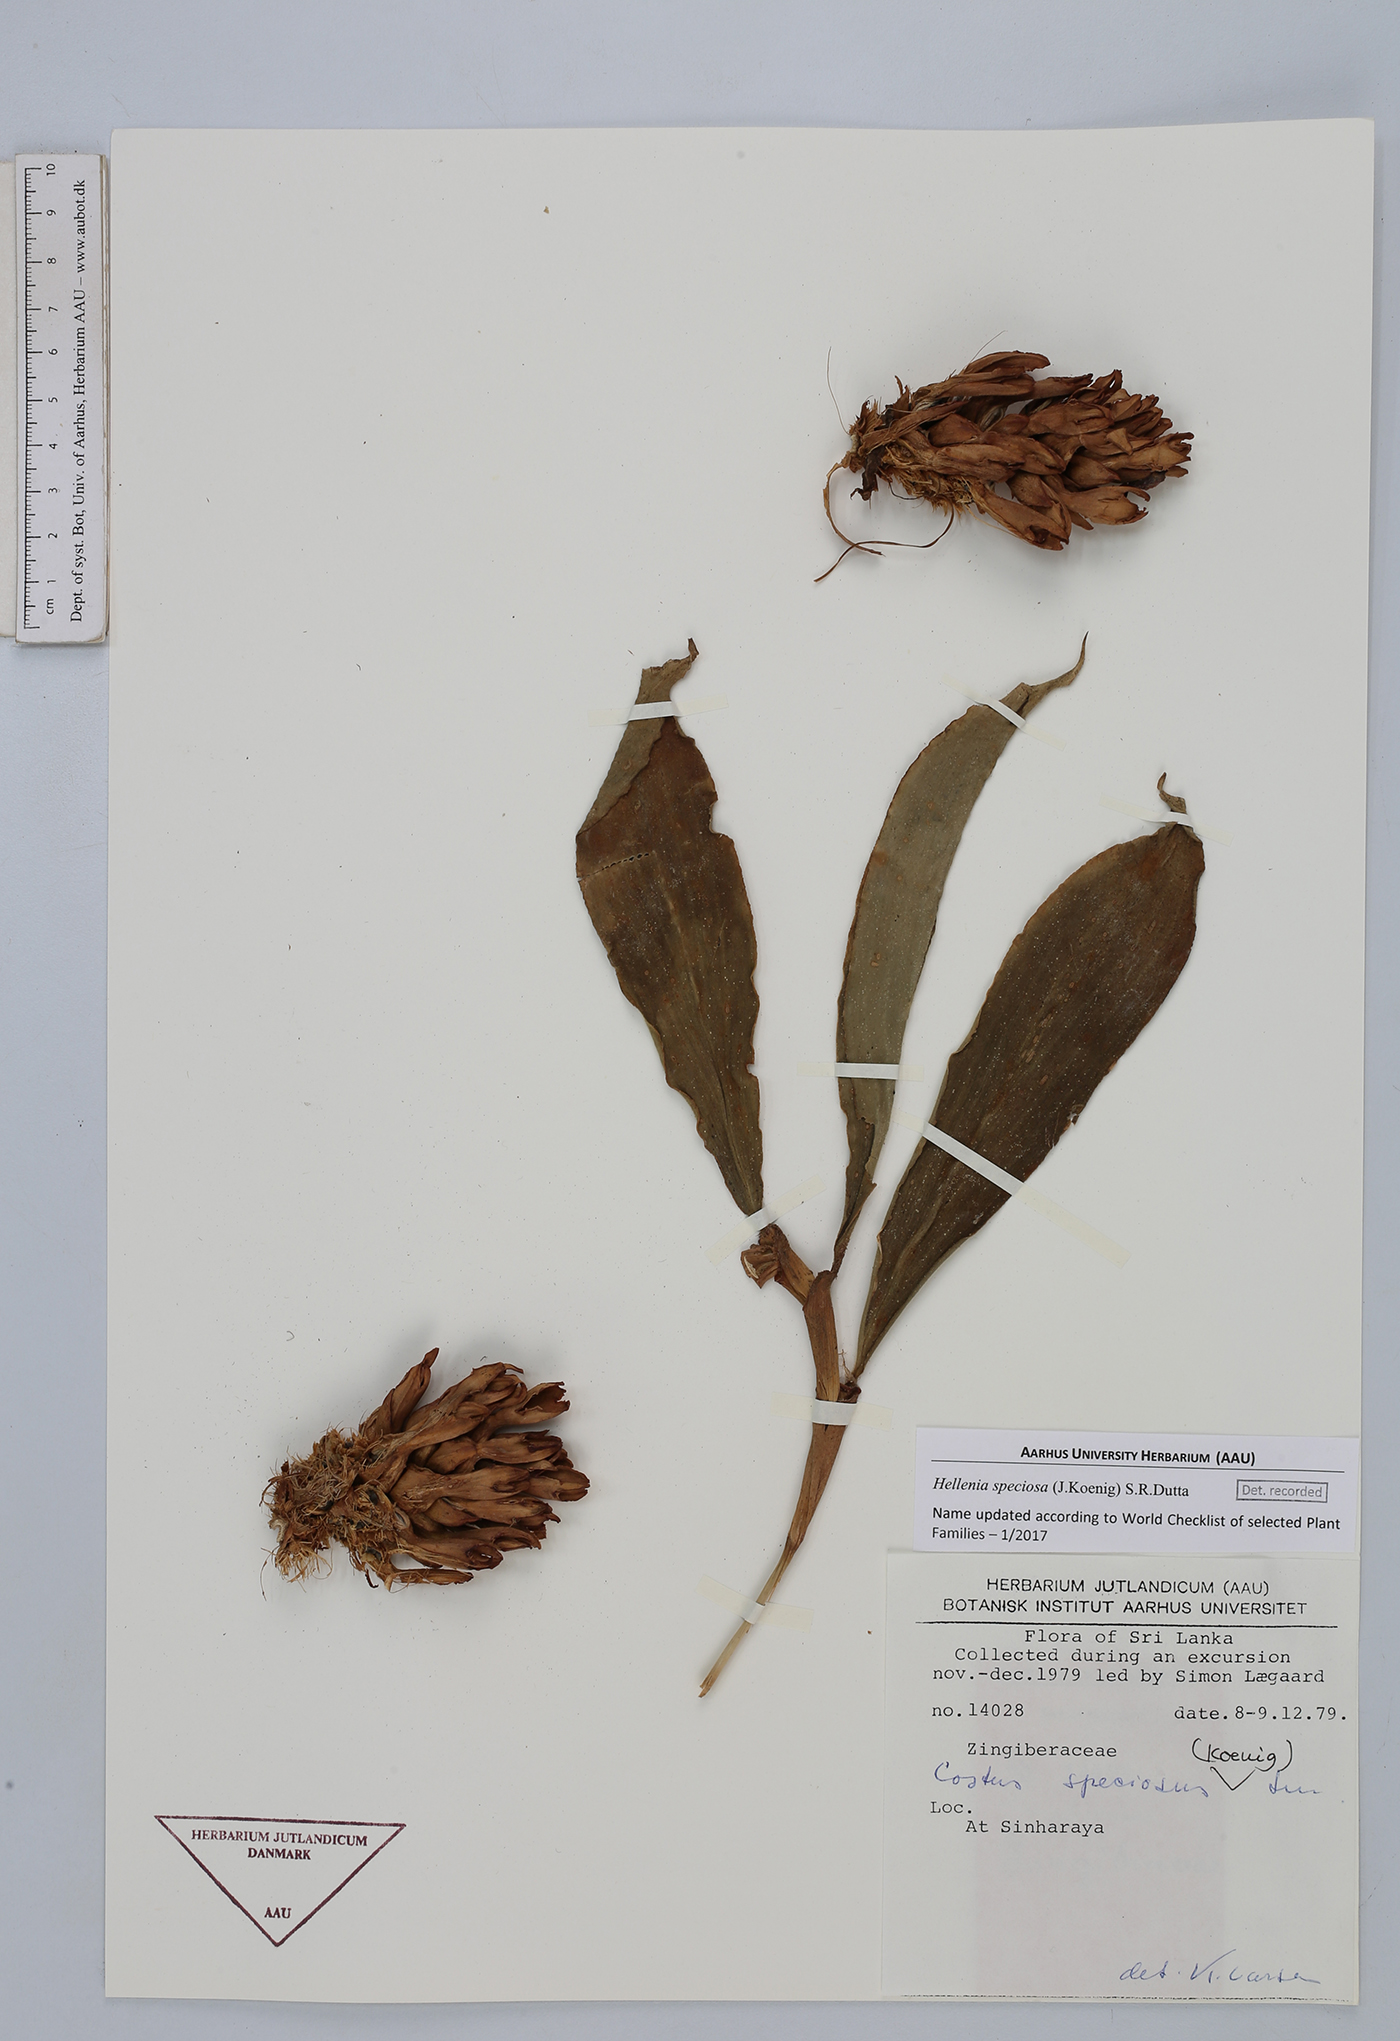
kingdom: Plantae
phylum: Tracheophyta
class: Liliopsida
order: Zingiberales
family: Costaceae
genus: Hellenia
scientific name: Hellenia speciosa
